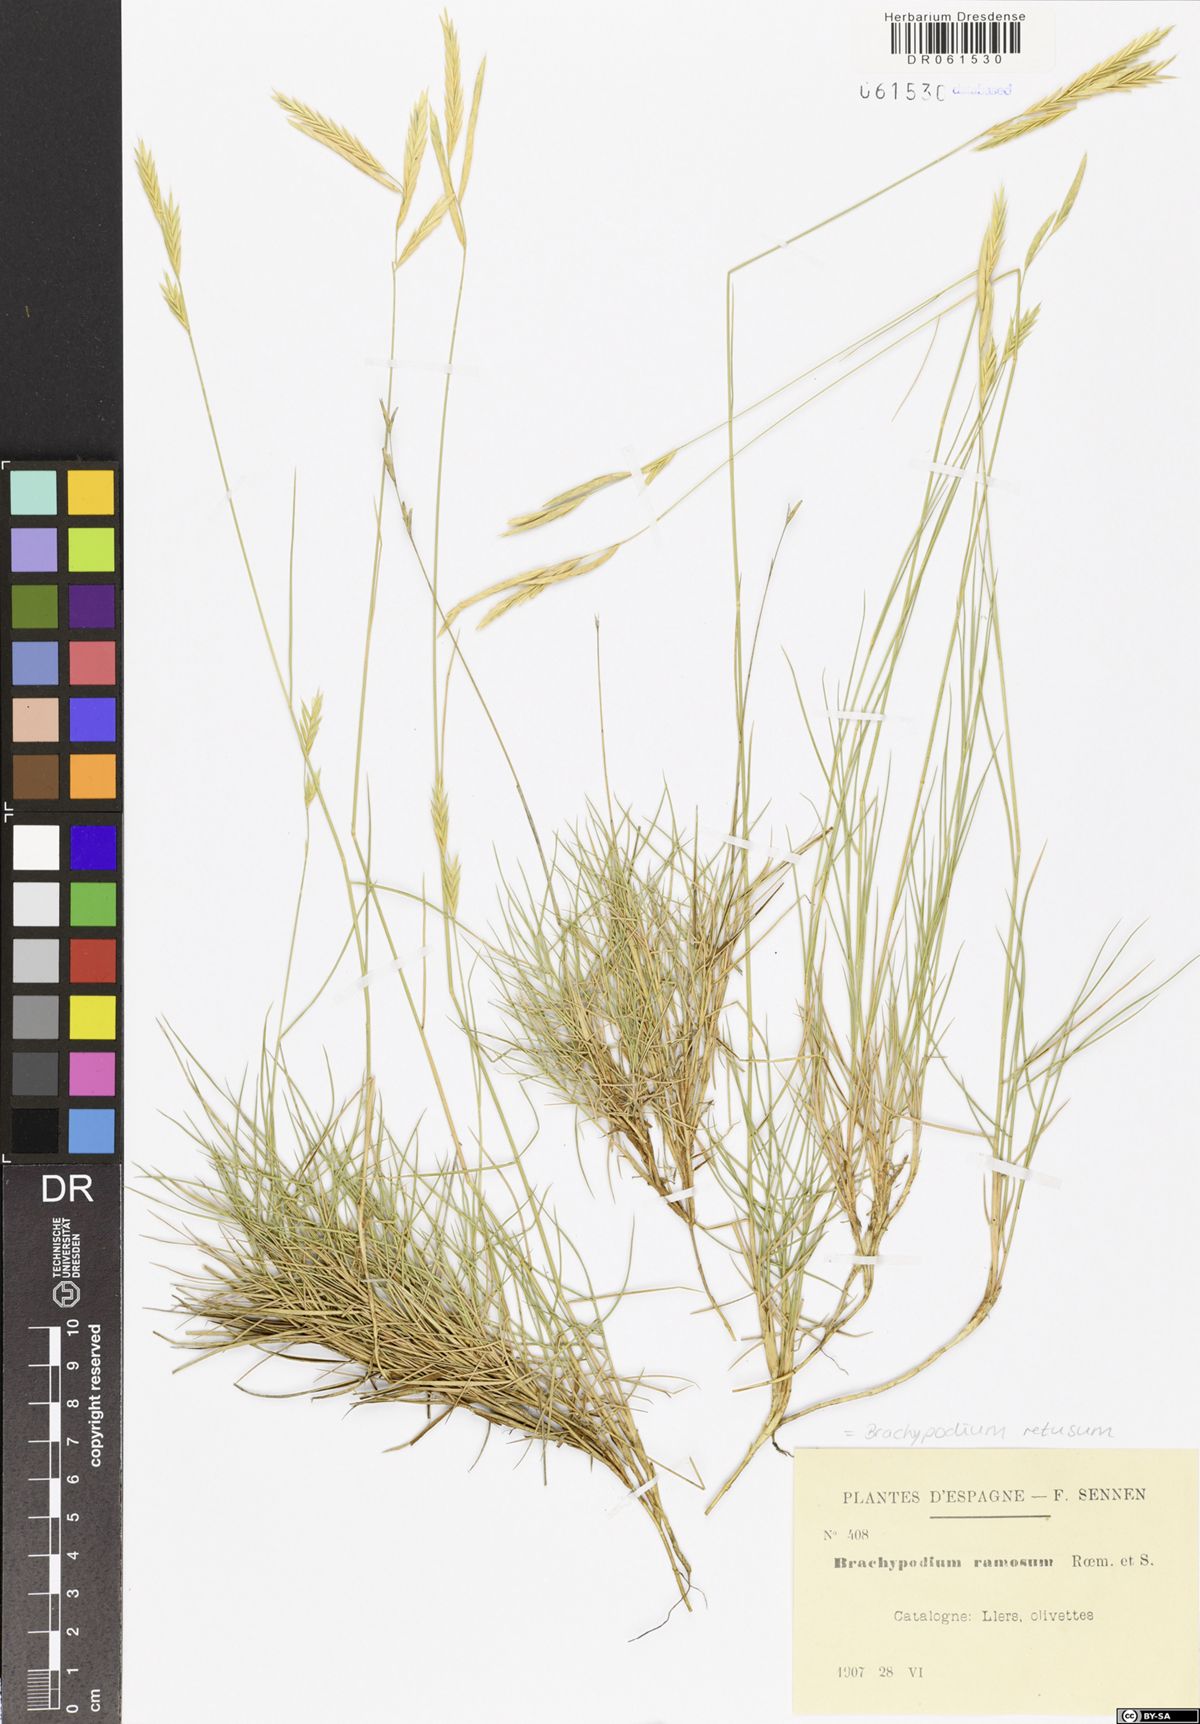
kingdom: Plantae
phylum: Tracheophyta
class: Liliopsida
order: Poales
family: Poaceae
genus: Brachypodium
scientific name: Brachypodium retusum
